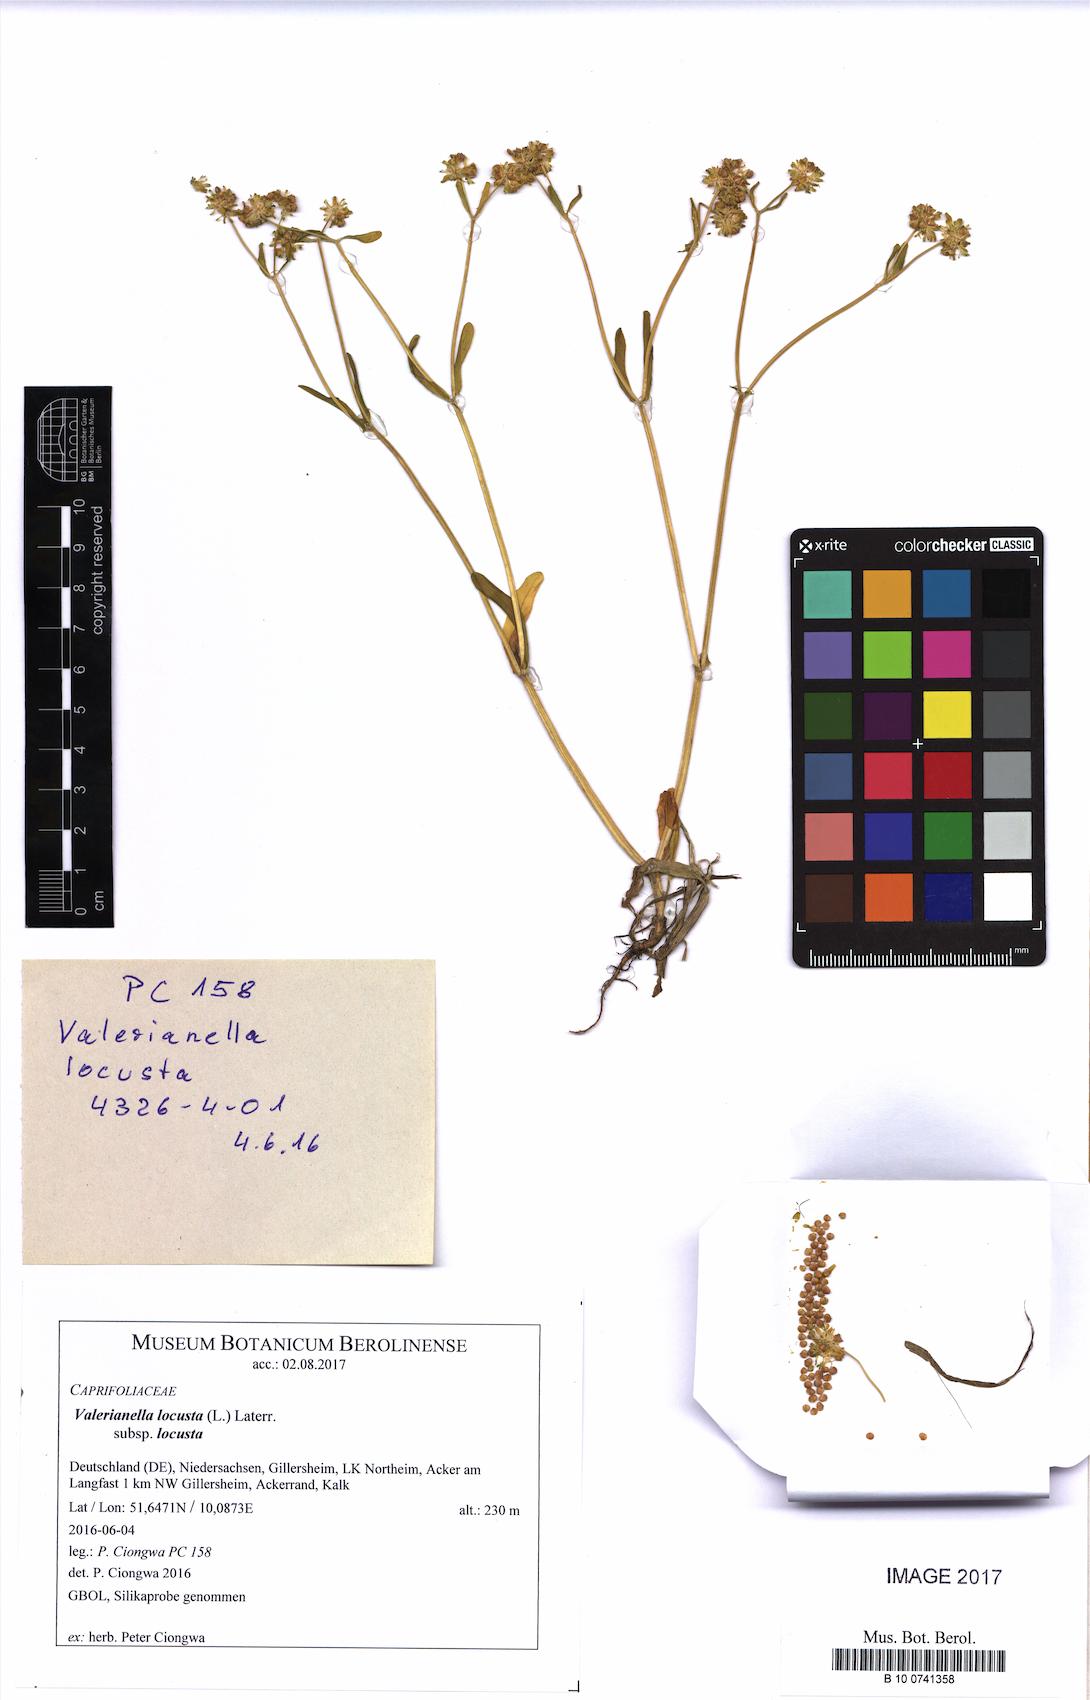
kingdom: Plantae
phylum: Tracheophyta
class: Magnoliopsida
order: Dipsacales
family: Caprifoliaceae
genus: Valerianella
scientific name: Valerianella locusta
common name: Common cornsalad
